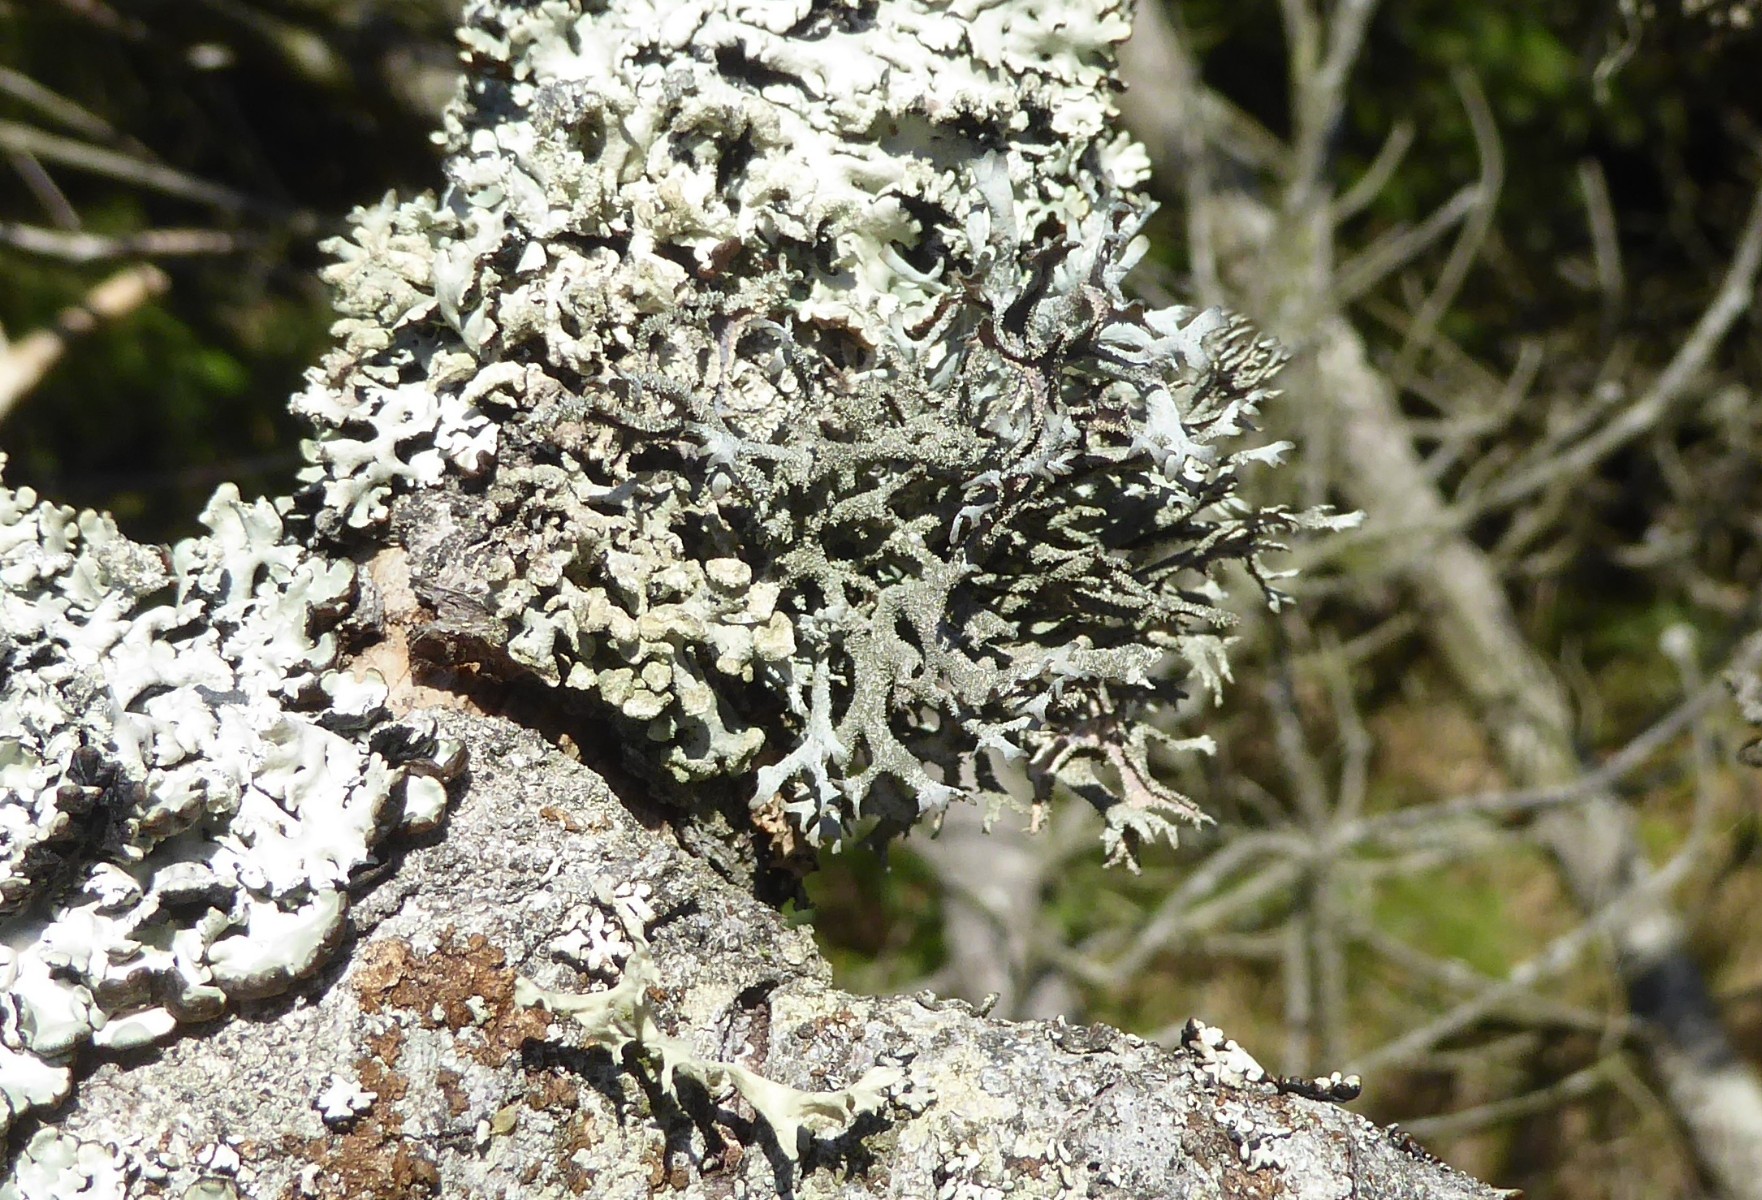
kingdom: Fungi
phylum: Ascomycota
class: Lecanoromycetes
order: Lecanorales
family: Parmeliaceae
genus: Pseudevernia
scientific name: Pseudevernia furfuracea
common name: grå fyrrelav
